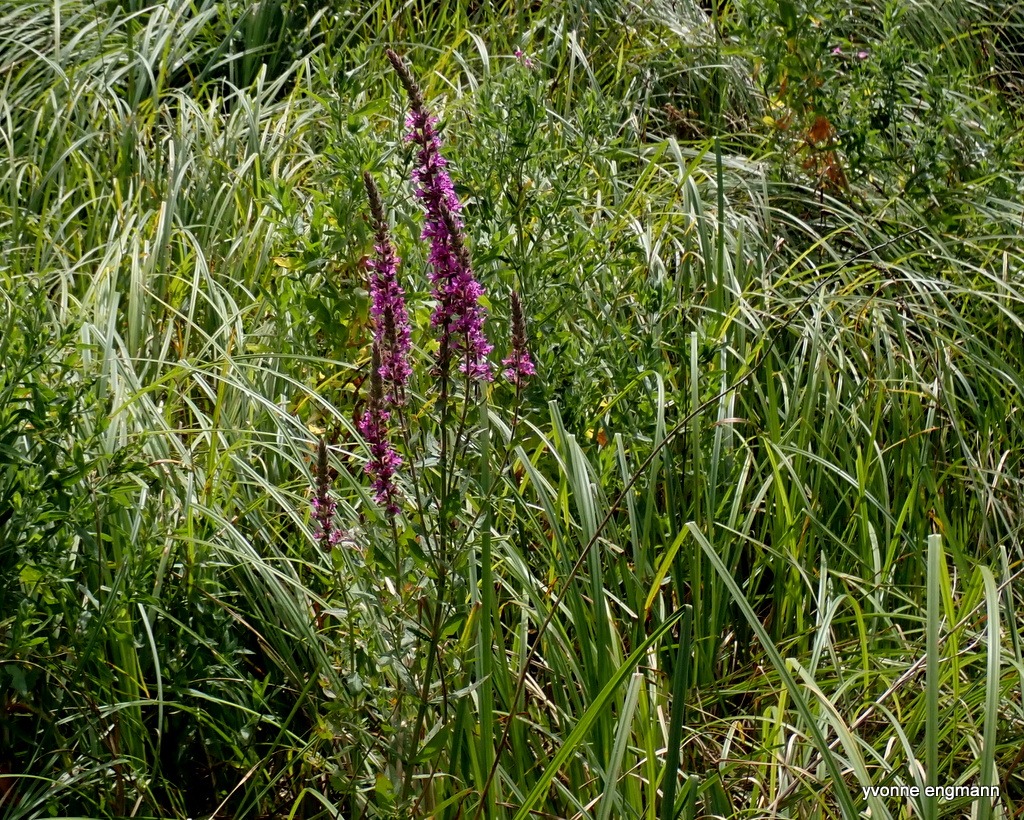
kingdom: Plantae
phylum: Tracheophyta
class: Magnoliopsida
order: Myrtales
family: Lythraceae
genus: Lythrum
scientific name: Lythrum salicaria
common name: Kattehale
